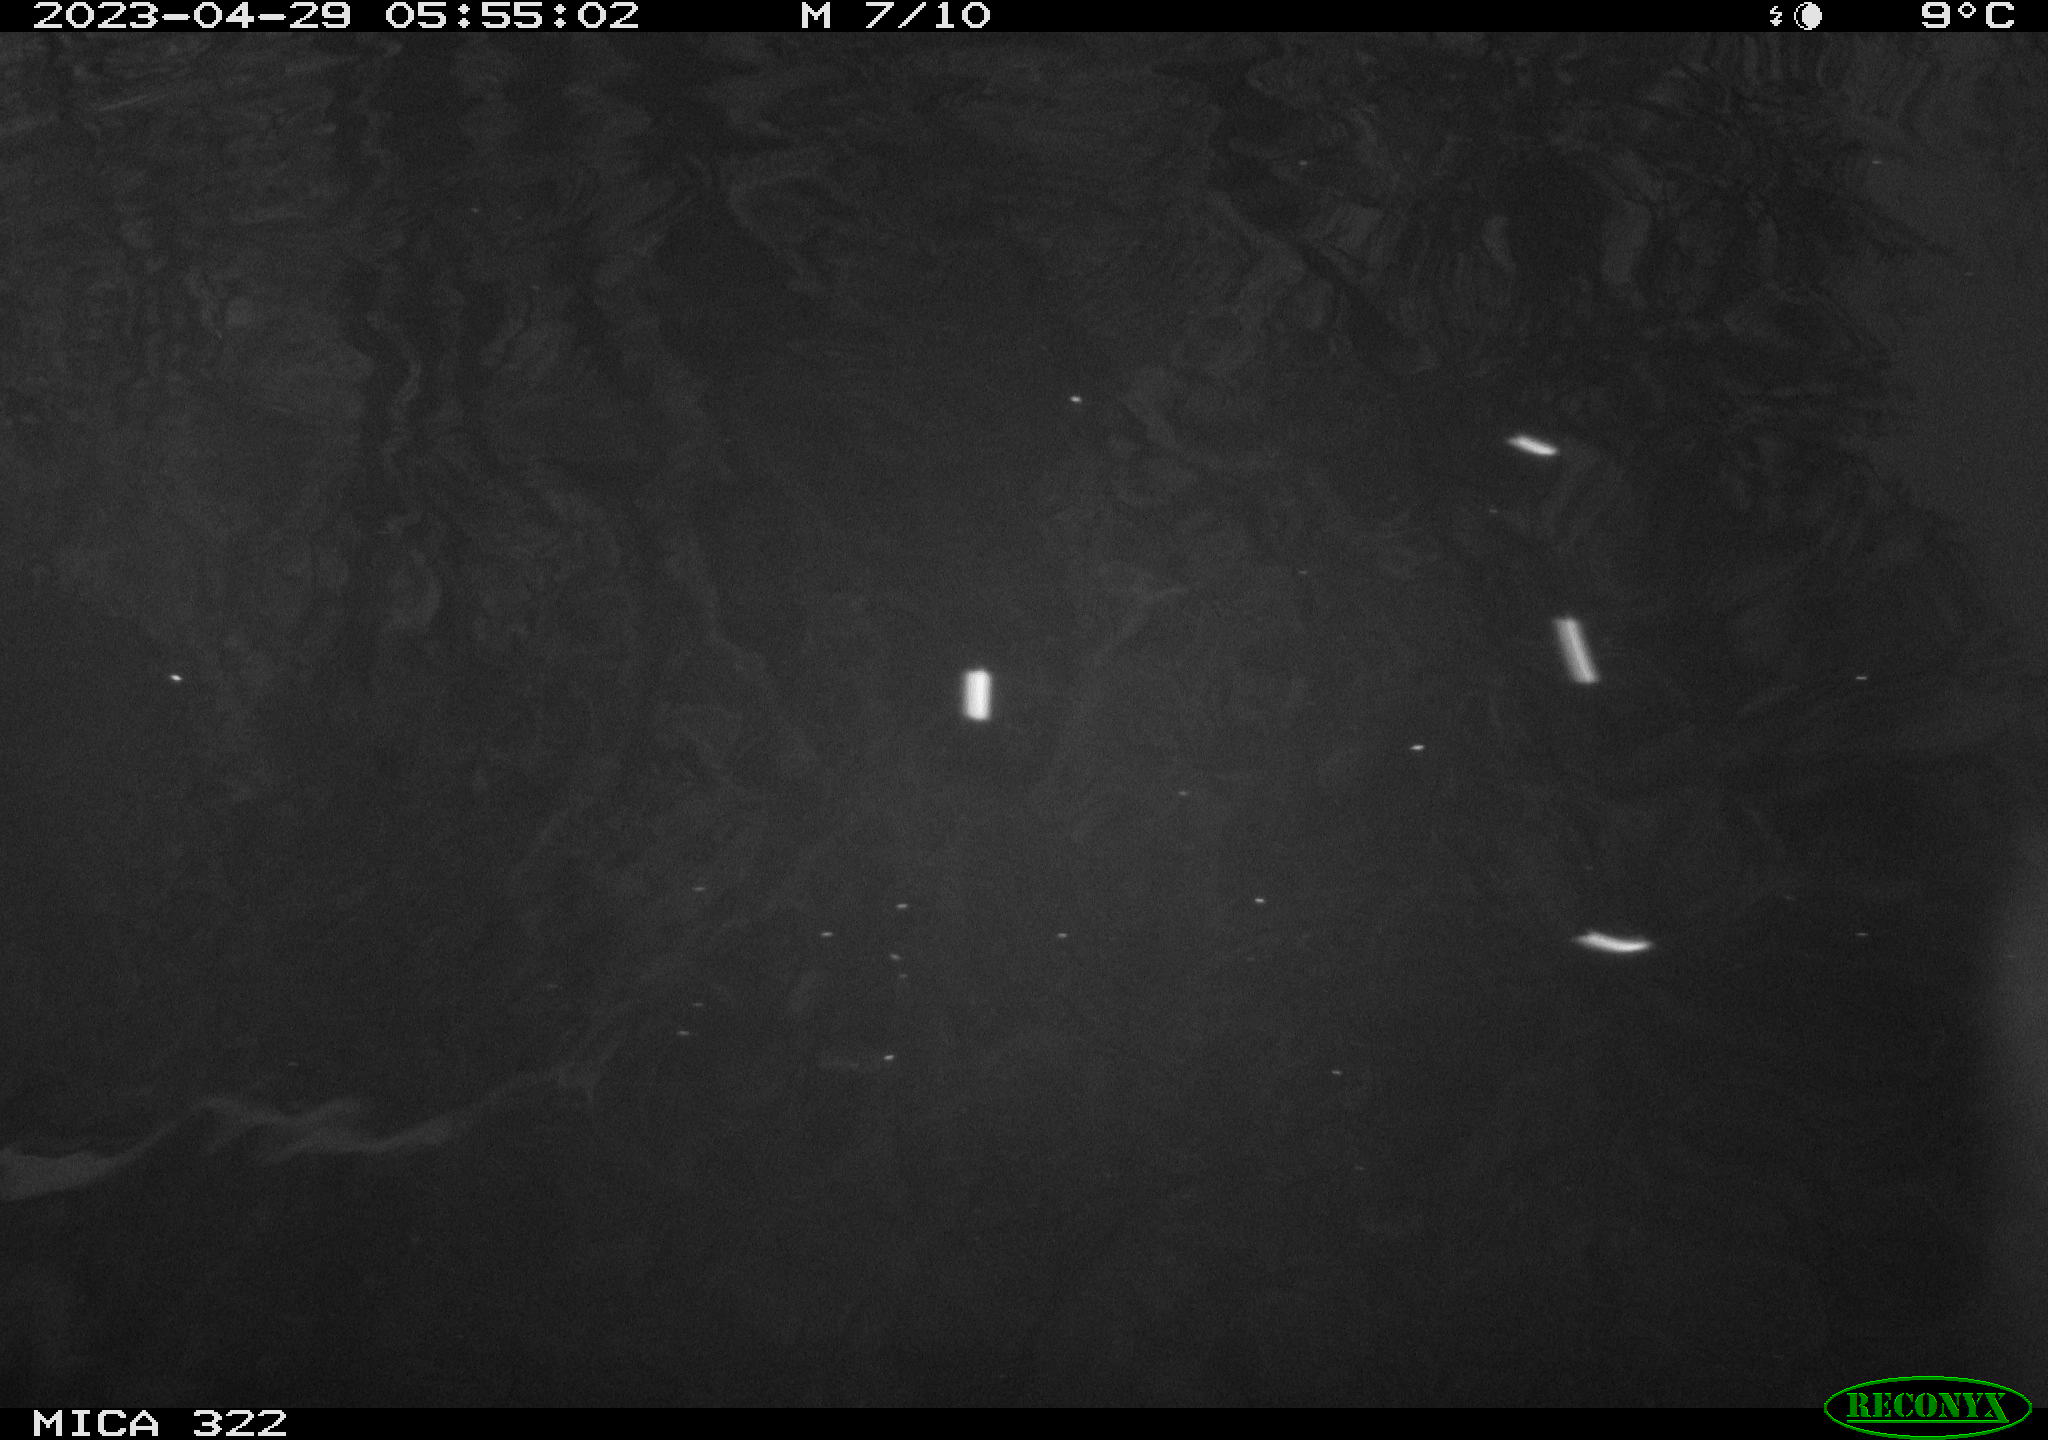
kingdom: Animalia
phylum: Chordata
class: Aves
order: Gruiformes
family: Rallidae
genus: Gallinula
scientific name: Gallinula chloropus
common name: Common moorhen
